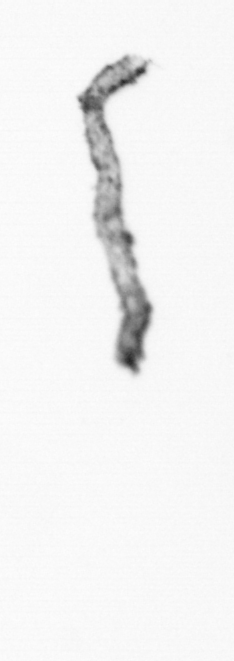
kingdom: Chromista
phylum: Ochrophyta
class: Bacillariophyceae
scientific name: Bacillariophyceae
